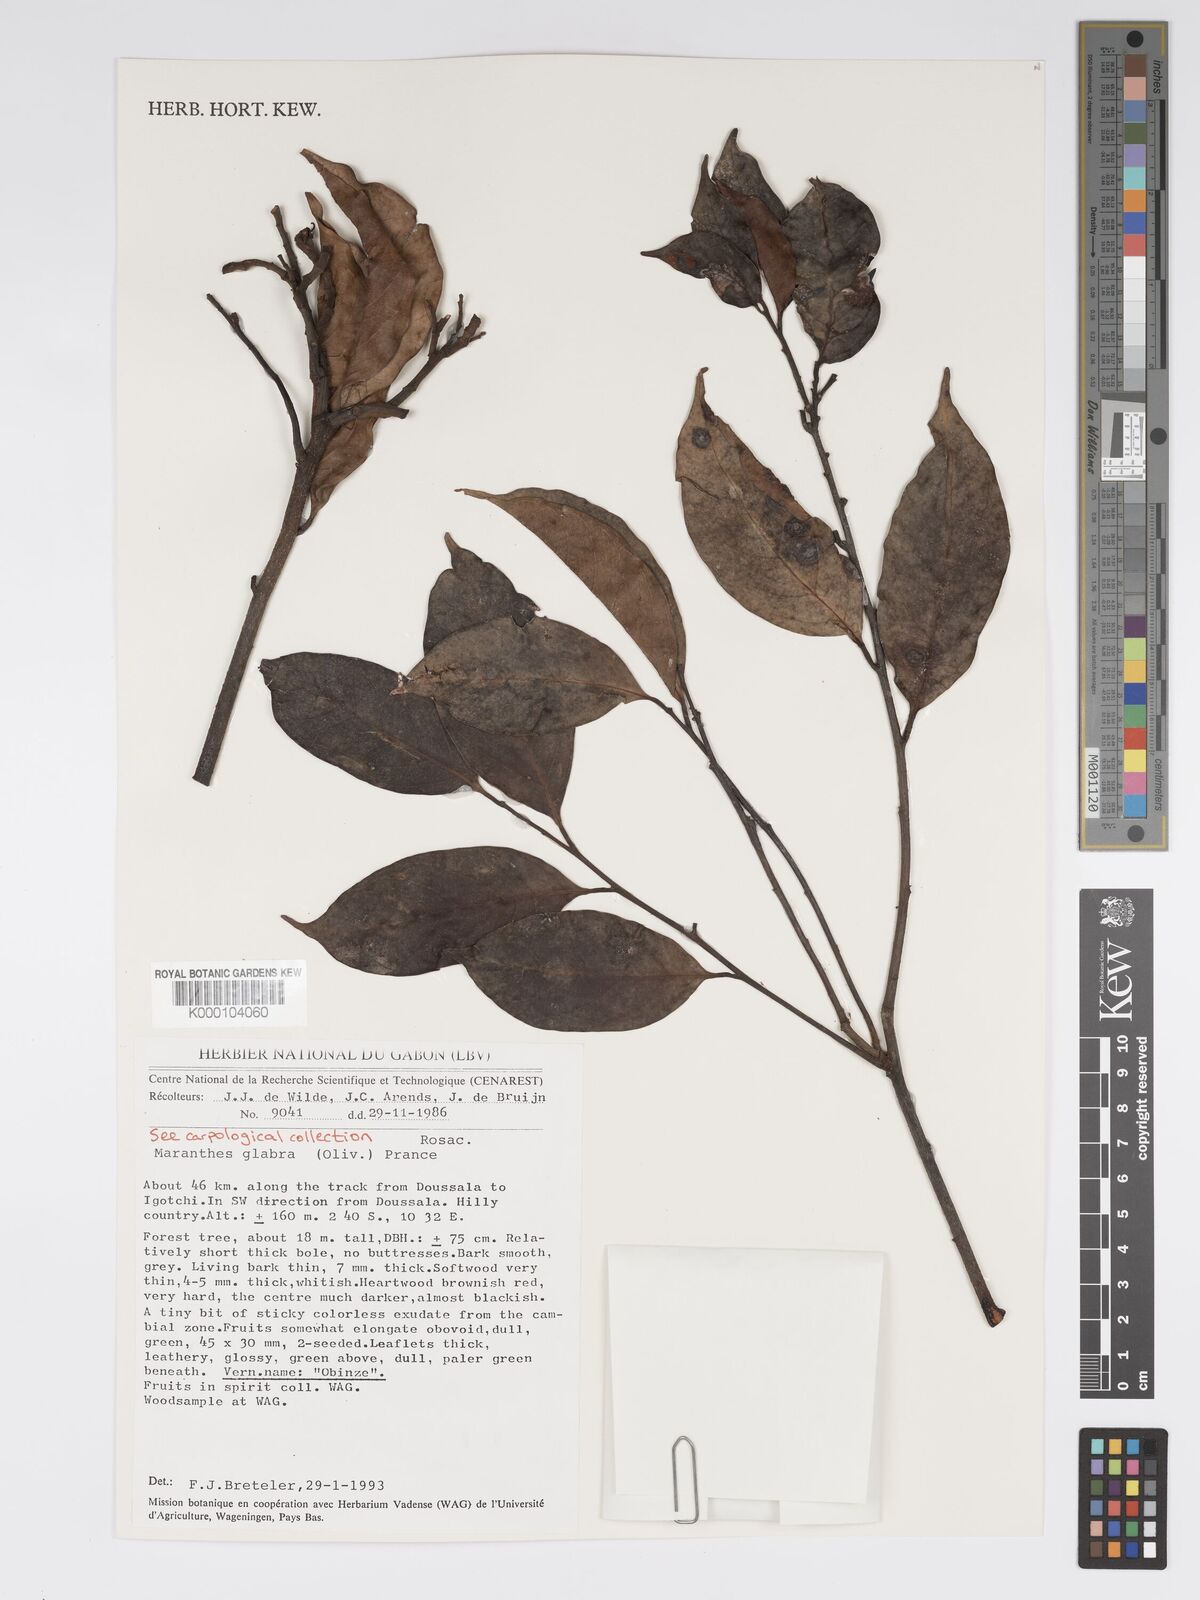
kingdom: Plantae
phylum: Tracheophyta
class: Magnoliopsida
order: Malpighiales
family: Chrysobalanaceae
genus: Maranthes
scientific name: Maranthes glabra
